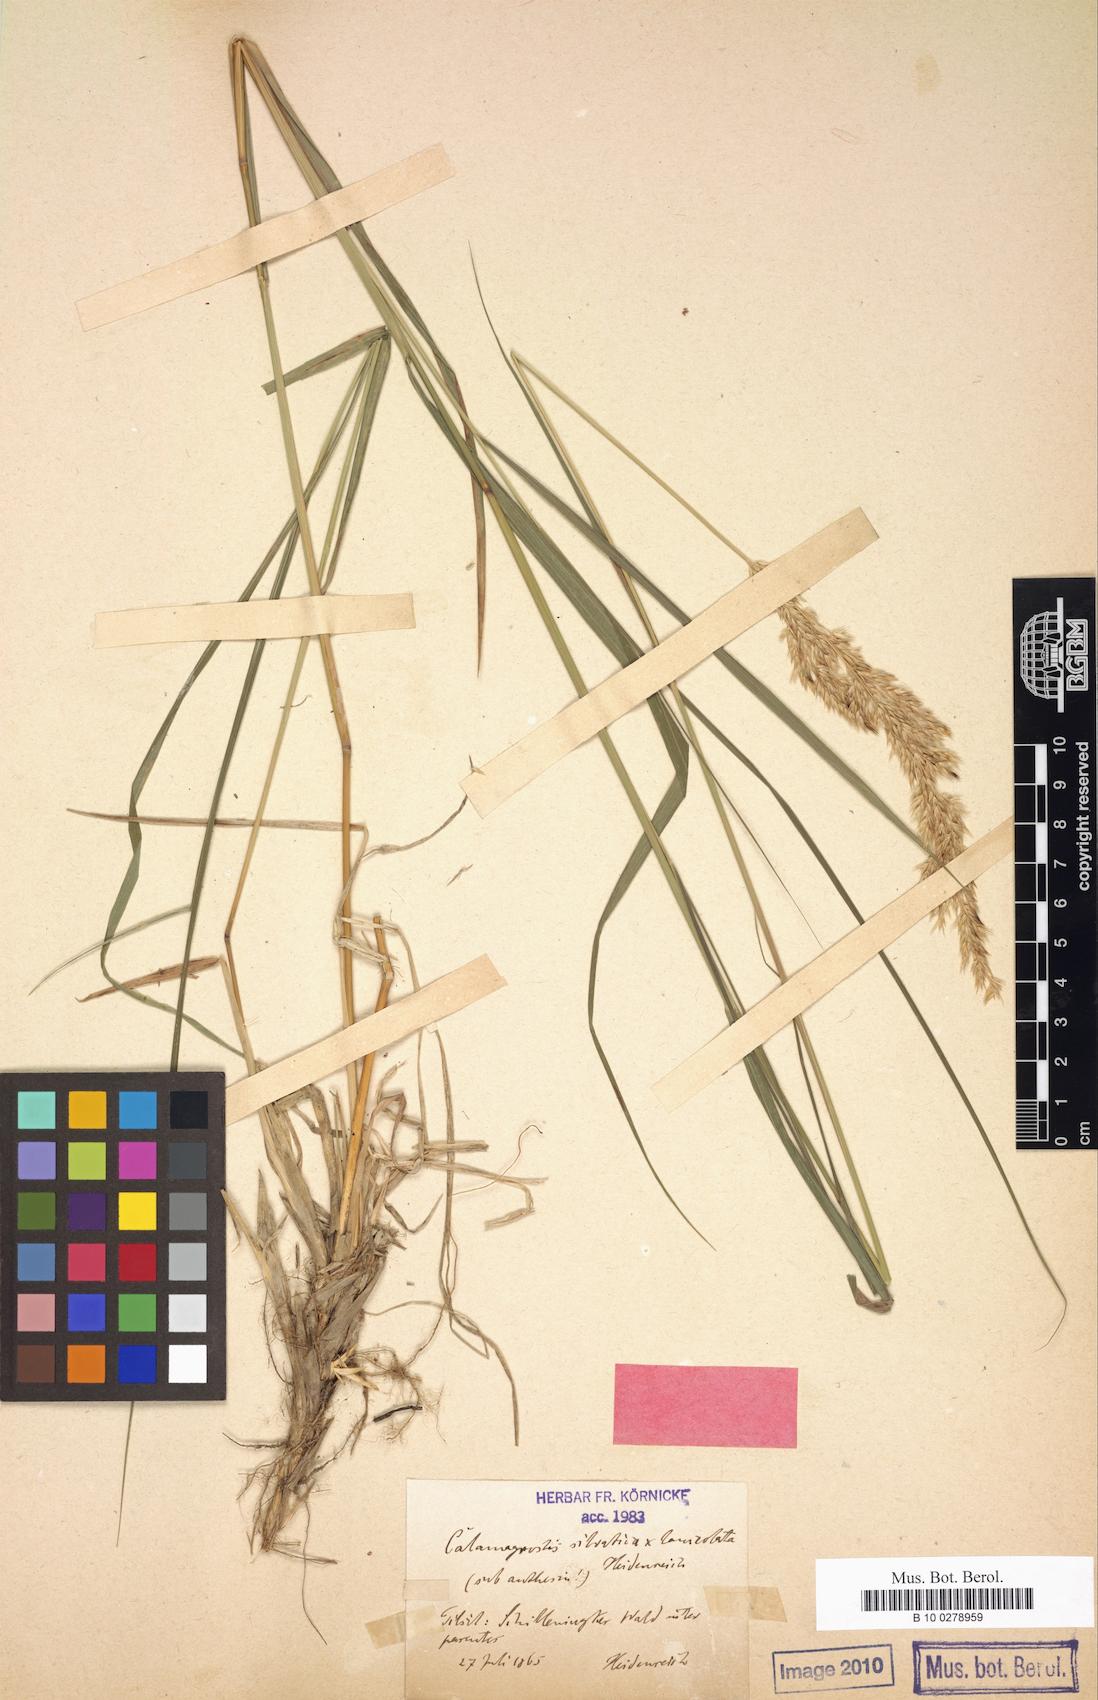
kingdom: Plantae
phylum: Tracheophyta
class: Liliopsida
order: Poales
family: Poaceae
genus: Calamagrostis
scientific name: Calamagrostis villosa
